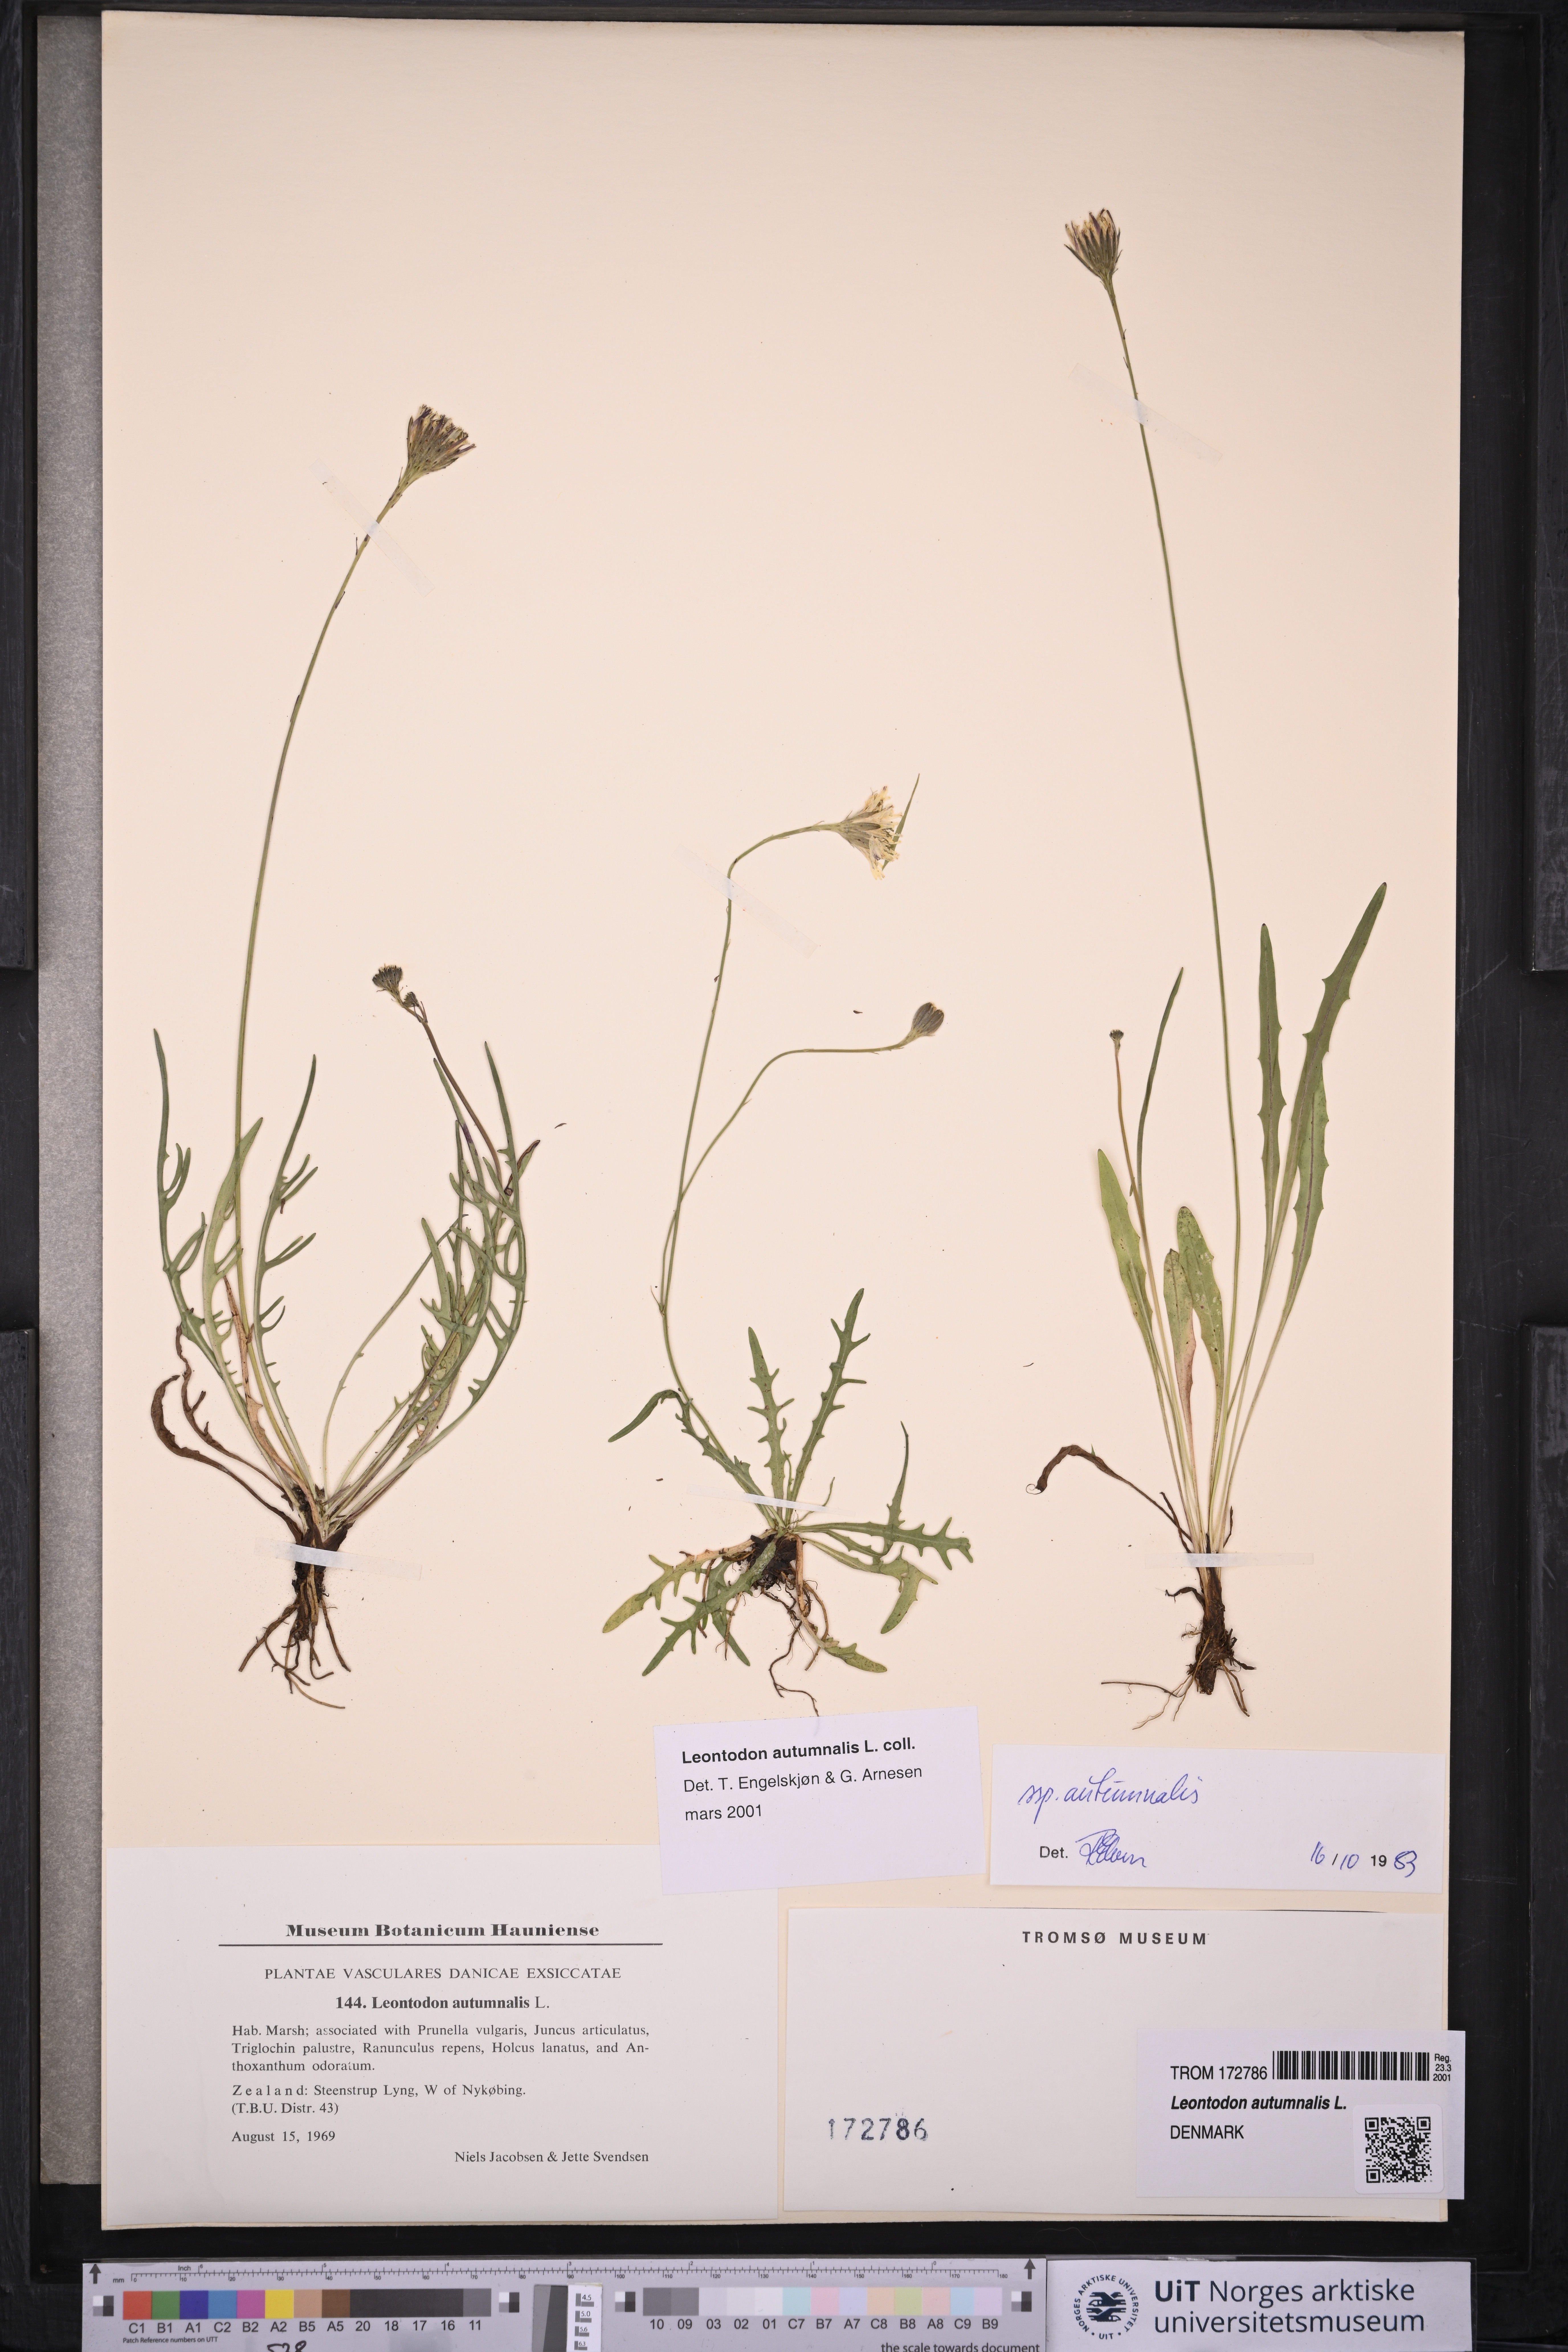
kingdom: Plantae
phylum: Tracheophyta
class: Magnoliopsida
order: Asterales
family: Asteraceae
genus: Scorzoneroides
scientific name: Scorzoneroides autumnalis
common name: Autumn hawkbit
